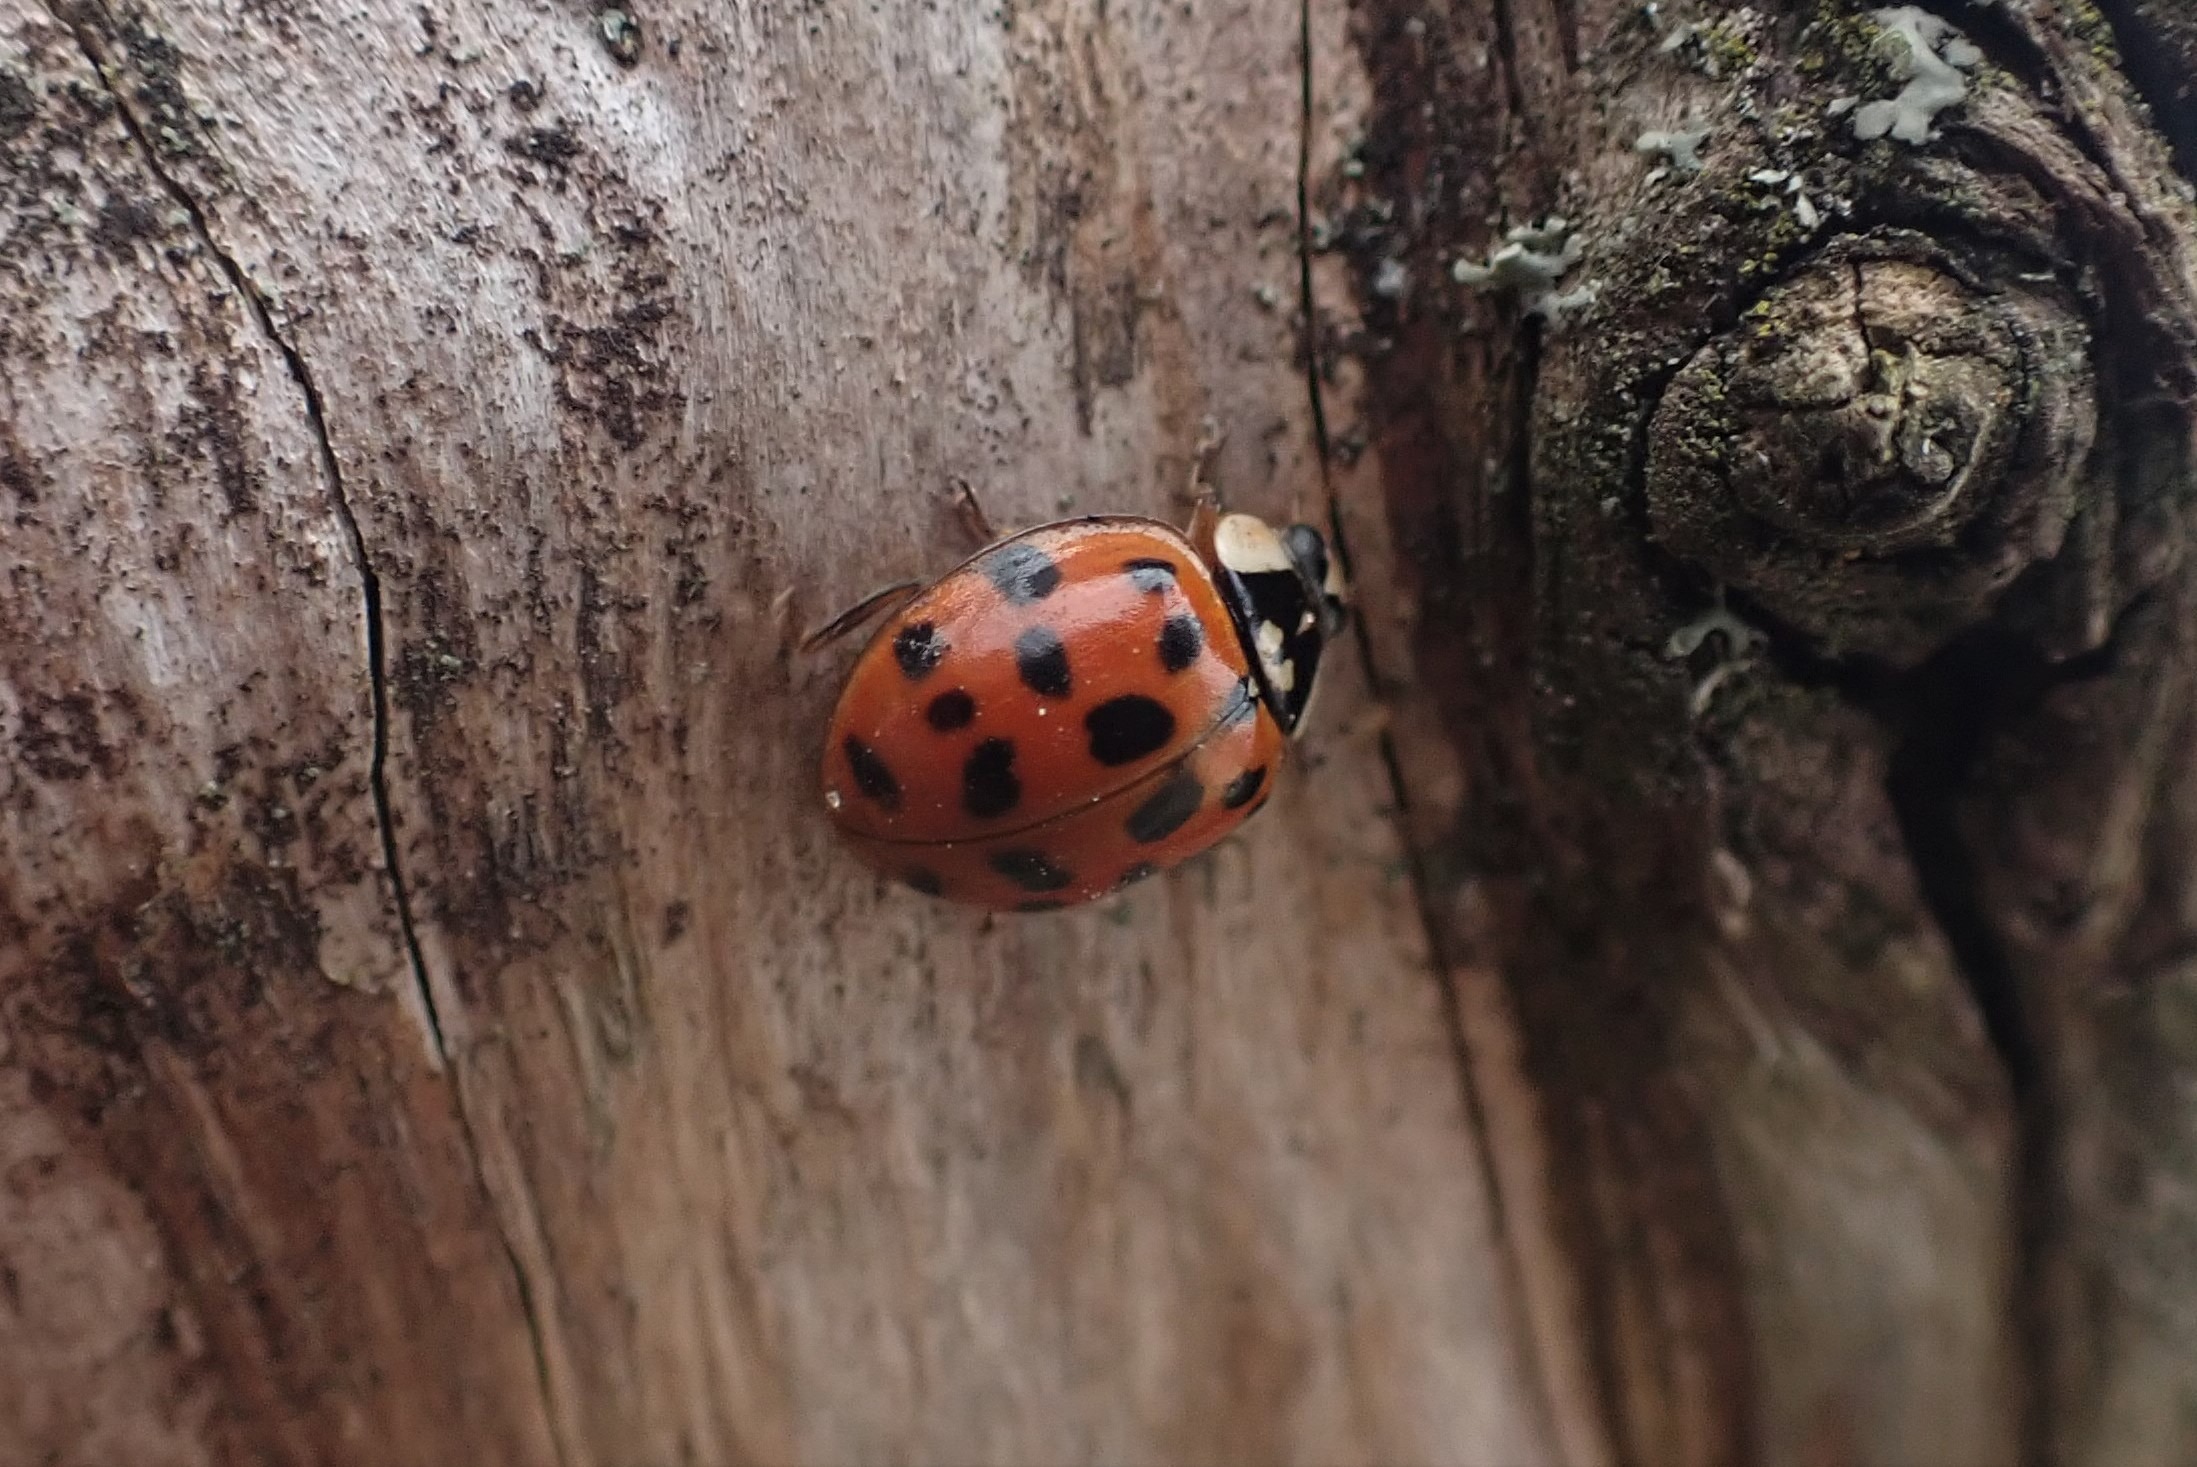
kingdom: Animalia
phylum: Arthropoda
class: Insecta
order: Coleoptera
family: Coccinellidae
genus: Harmonia
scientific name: Harmonia axyridis
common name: Harlekinmariehøne
